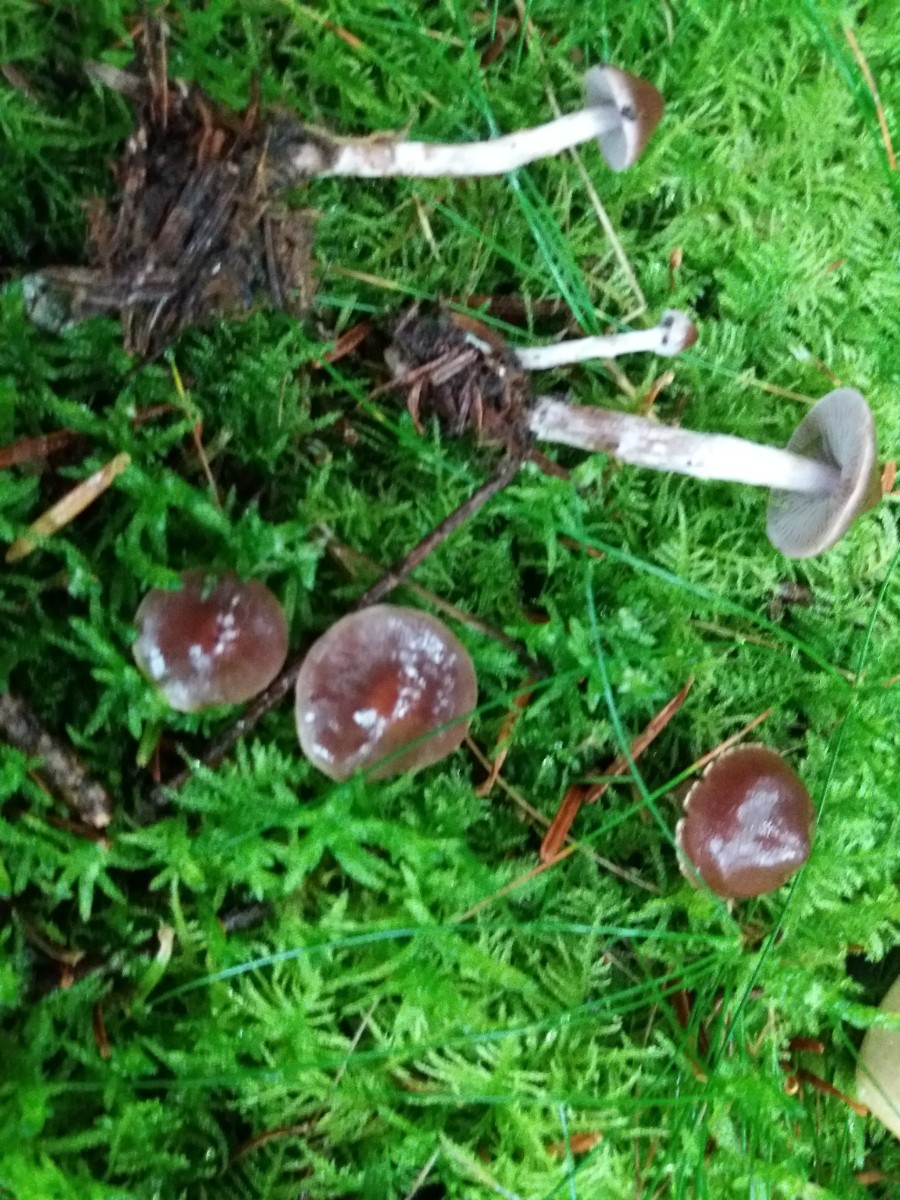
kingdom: Fungi
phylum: Basidiomycota
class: Agaricomycetes
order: Agaricales
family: Cortinariaceae
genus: Cortinarius
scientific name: Cortinarius praestigiosus
